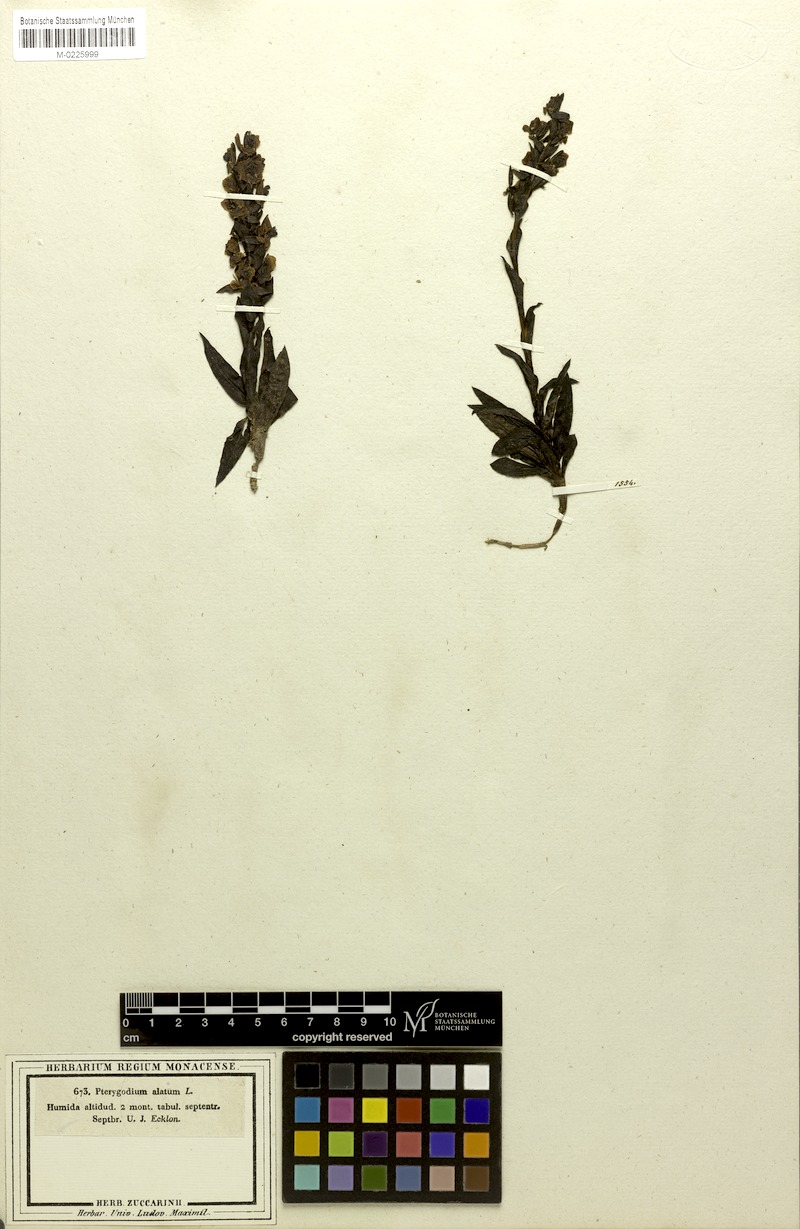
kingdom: Plantae
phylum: Tracheophyta
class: Liliopsida
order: Asparagales
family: Orchidaceae
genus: Pterygodium
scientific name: Pterygodium alatum
